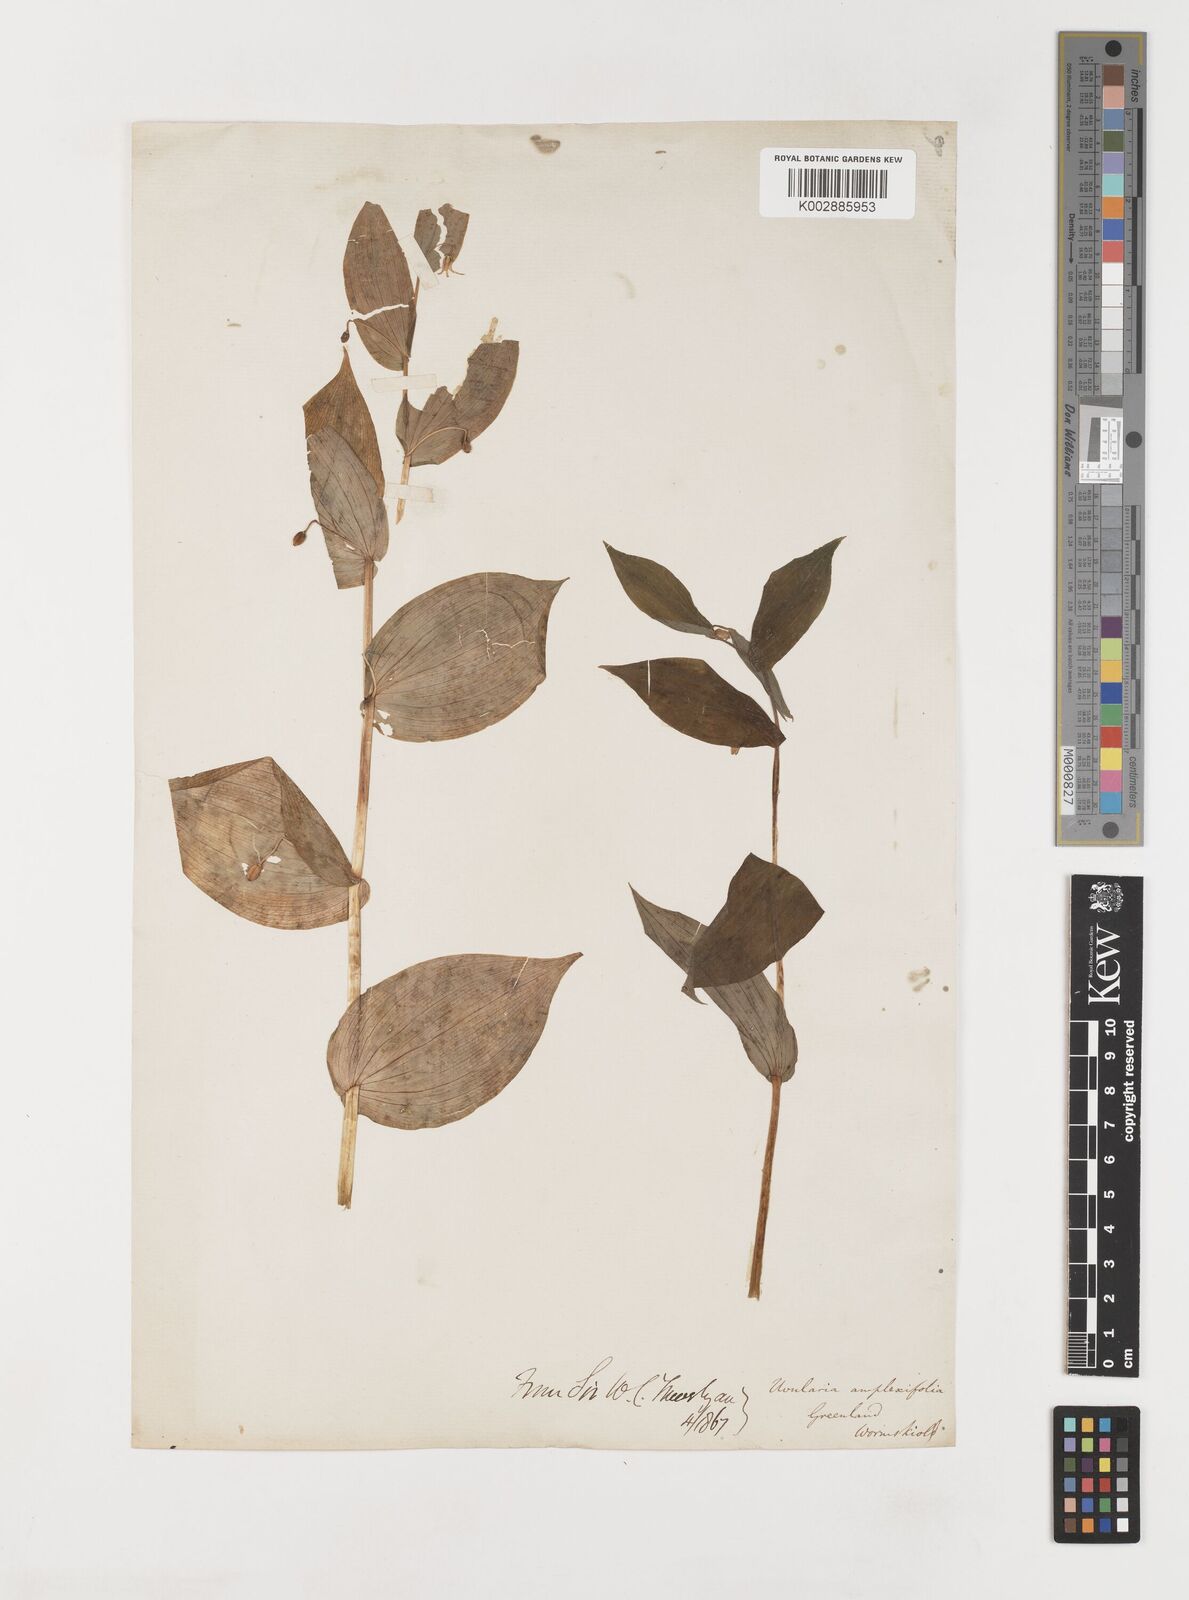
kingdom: Plantae
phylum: Tracheophyta
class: Liliopsida
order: Liliales
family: Liliaceae
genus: Streptopus
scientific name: Streptopus amplexifolius
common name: Clasp twisted stalk
